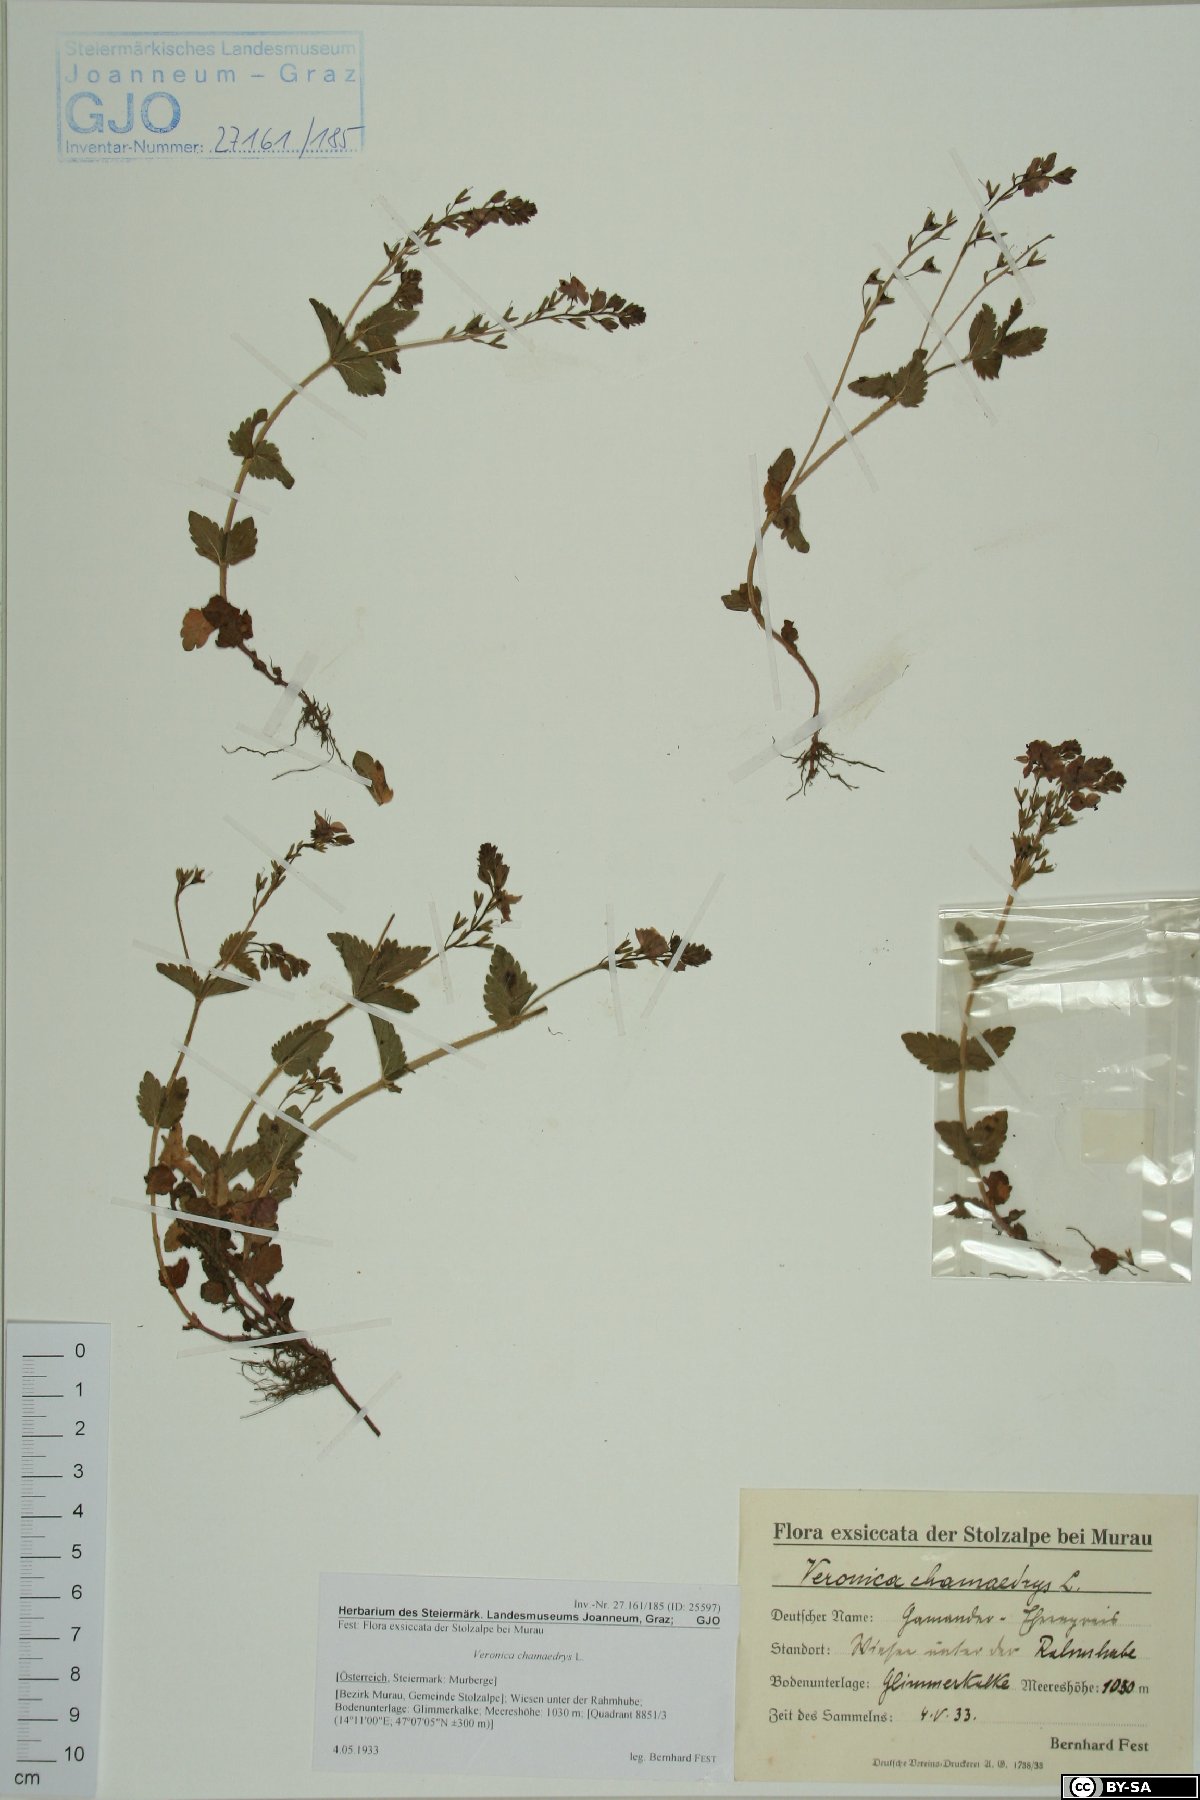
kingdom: Plantae
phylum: Tracheophyta
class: Magnoliopsida
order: Lamiales
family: Plantaginaceae
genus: Veronica
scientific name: Veronica chamaedrys
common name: Germander speedwell
